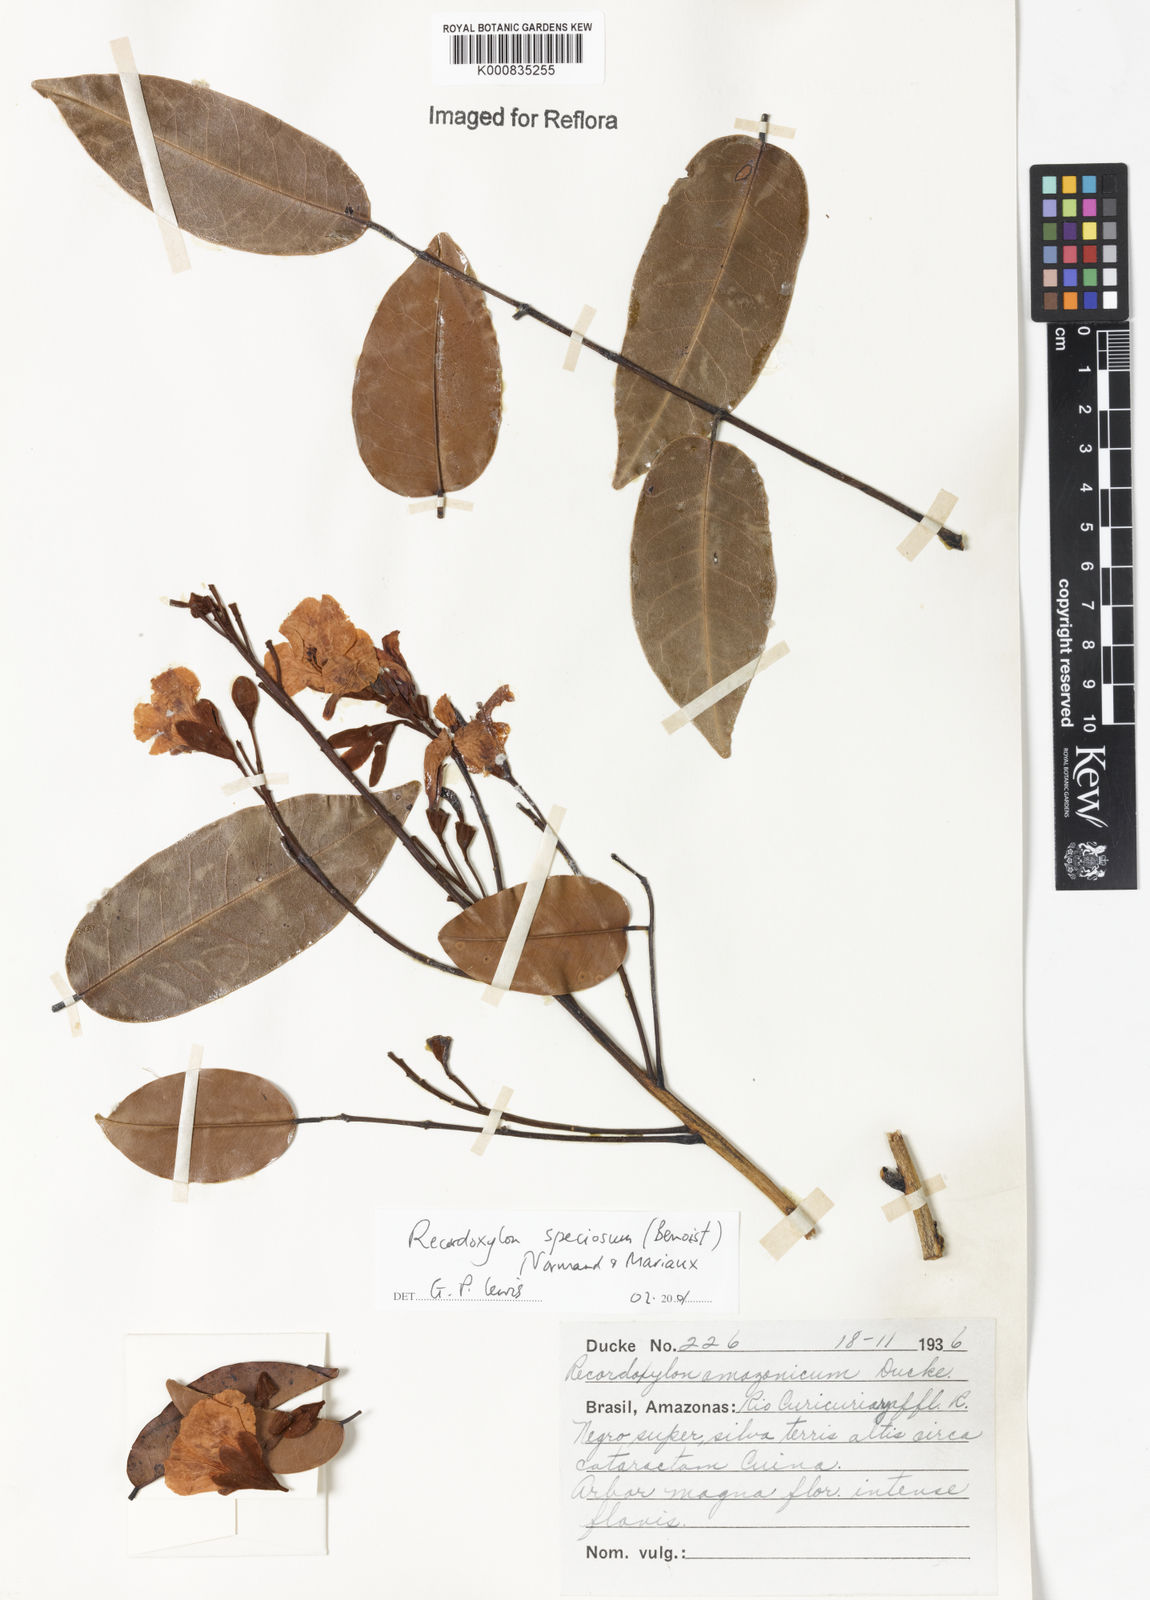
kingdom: Plantae
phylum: Tracheophyta
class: Magnoliopsida
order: Fabales
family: Fabaceae
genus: Recordoxylon
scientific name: Recordoxylon speciosum
